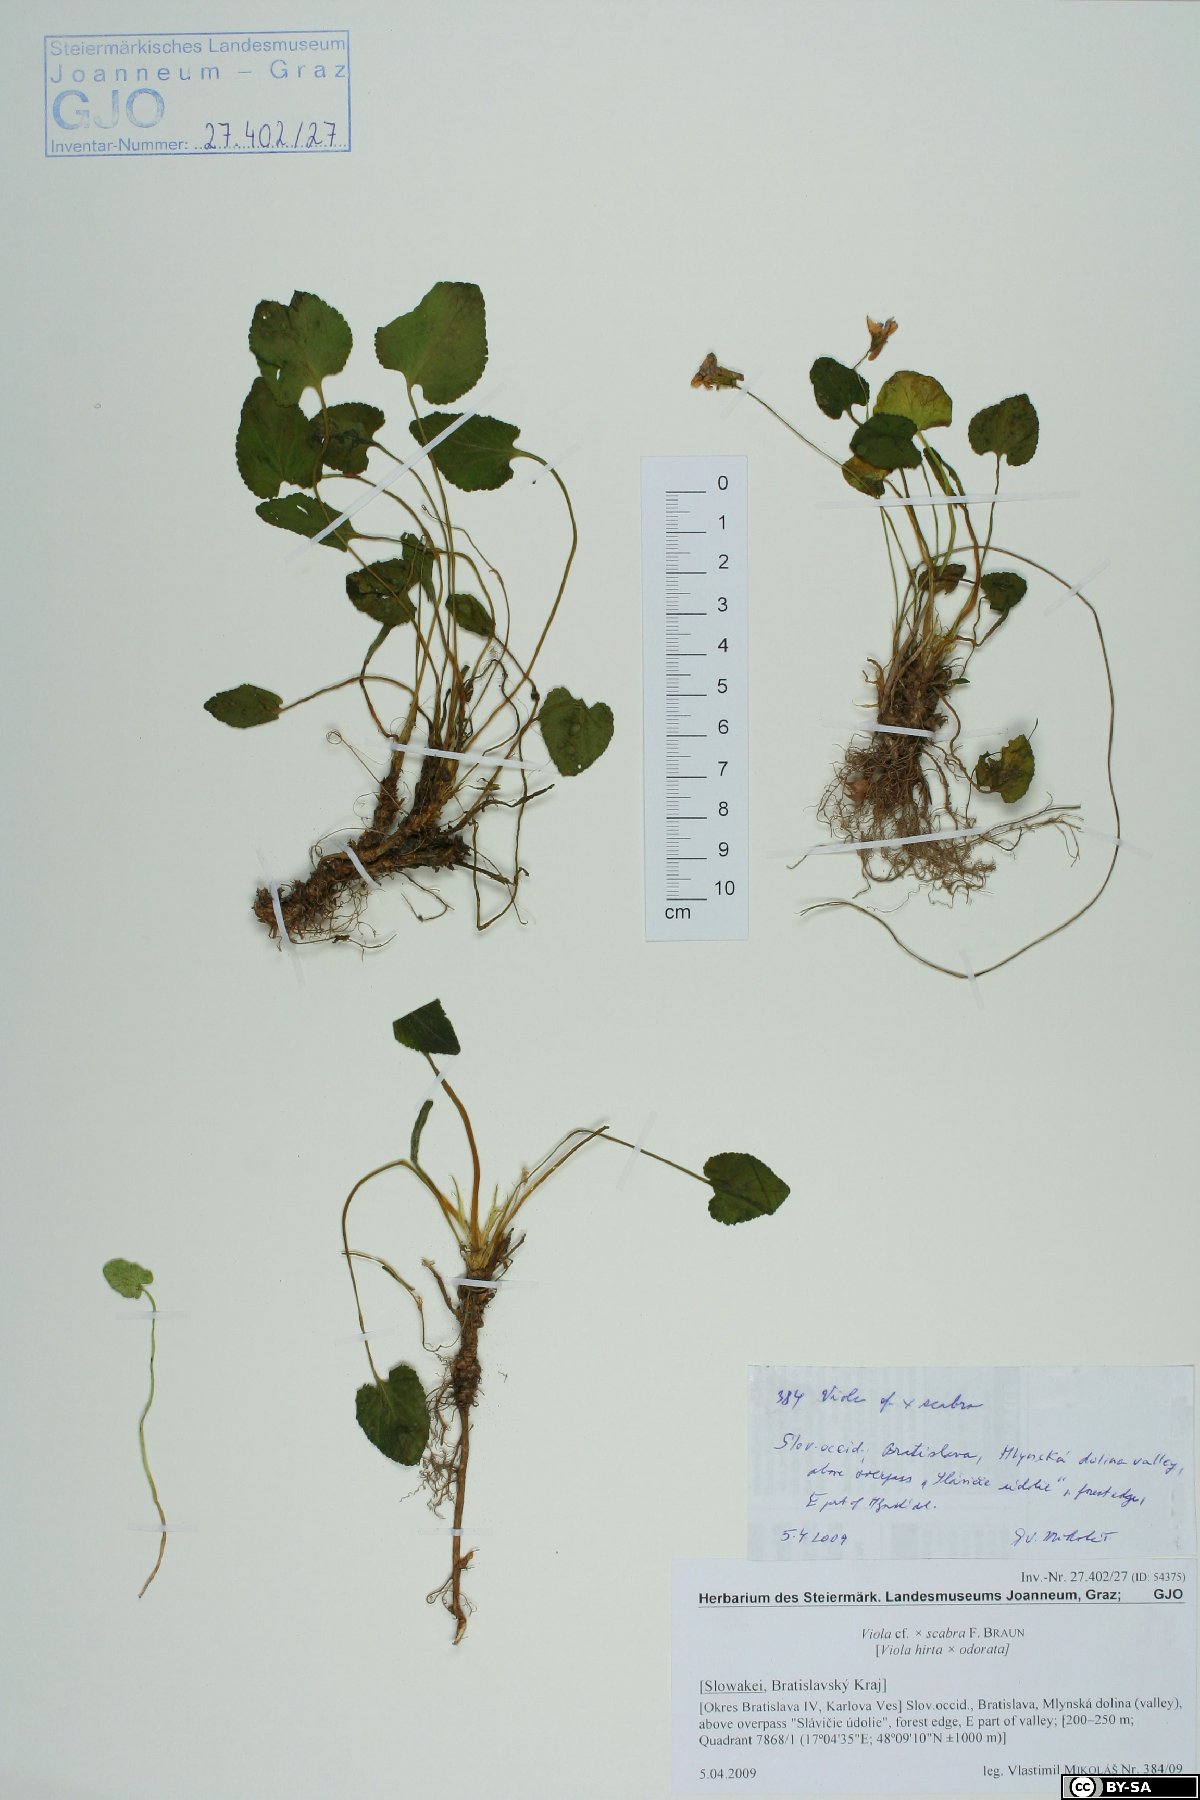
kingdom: Plantae
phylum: Tracheophyta
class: Magnoliopsida
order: Malpighiales
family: Violaceae
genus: Viola
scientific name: Viola scabra
